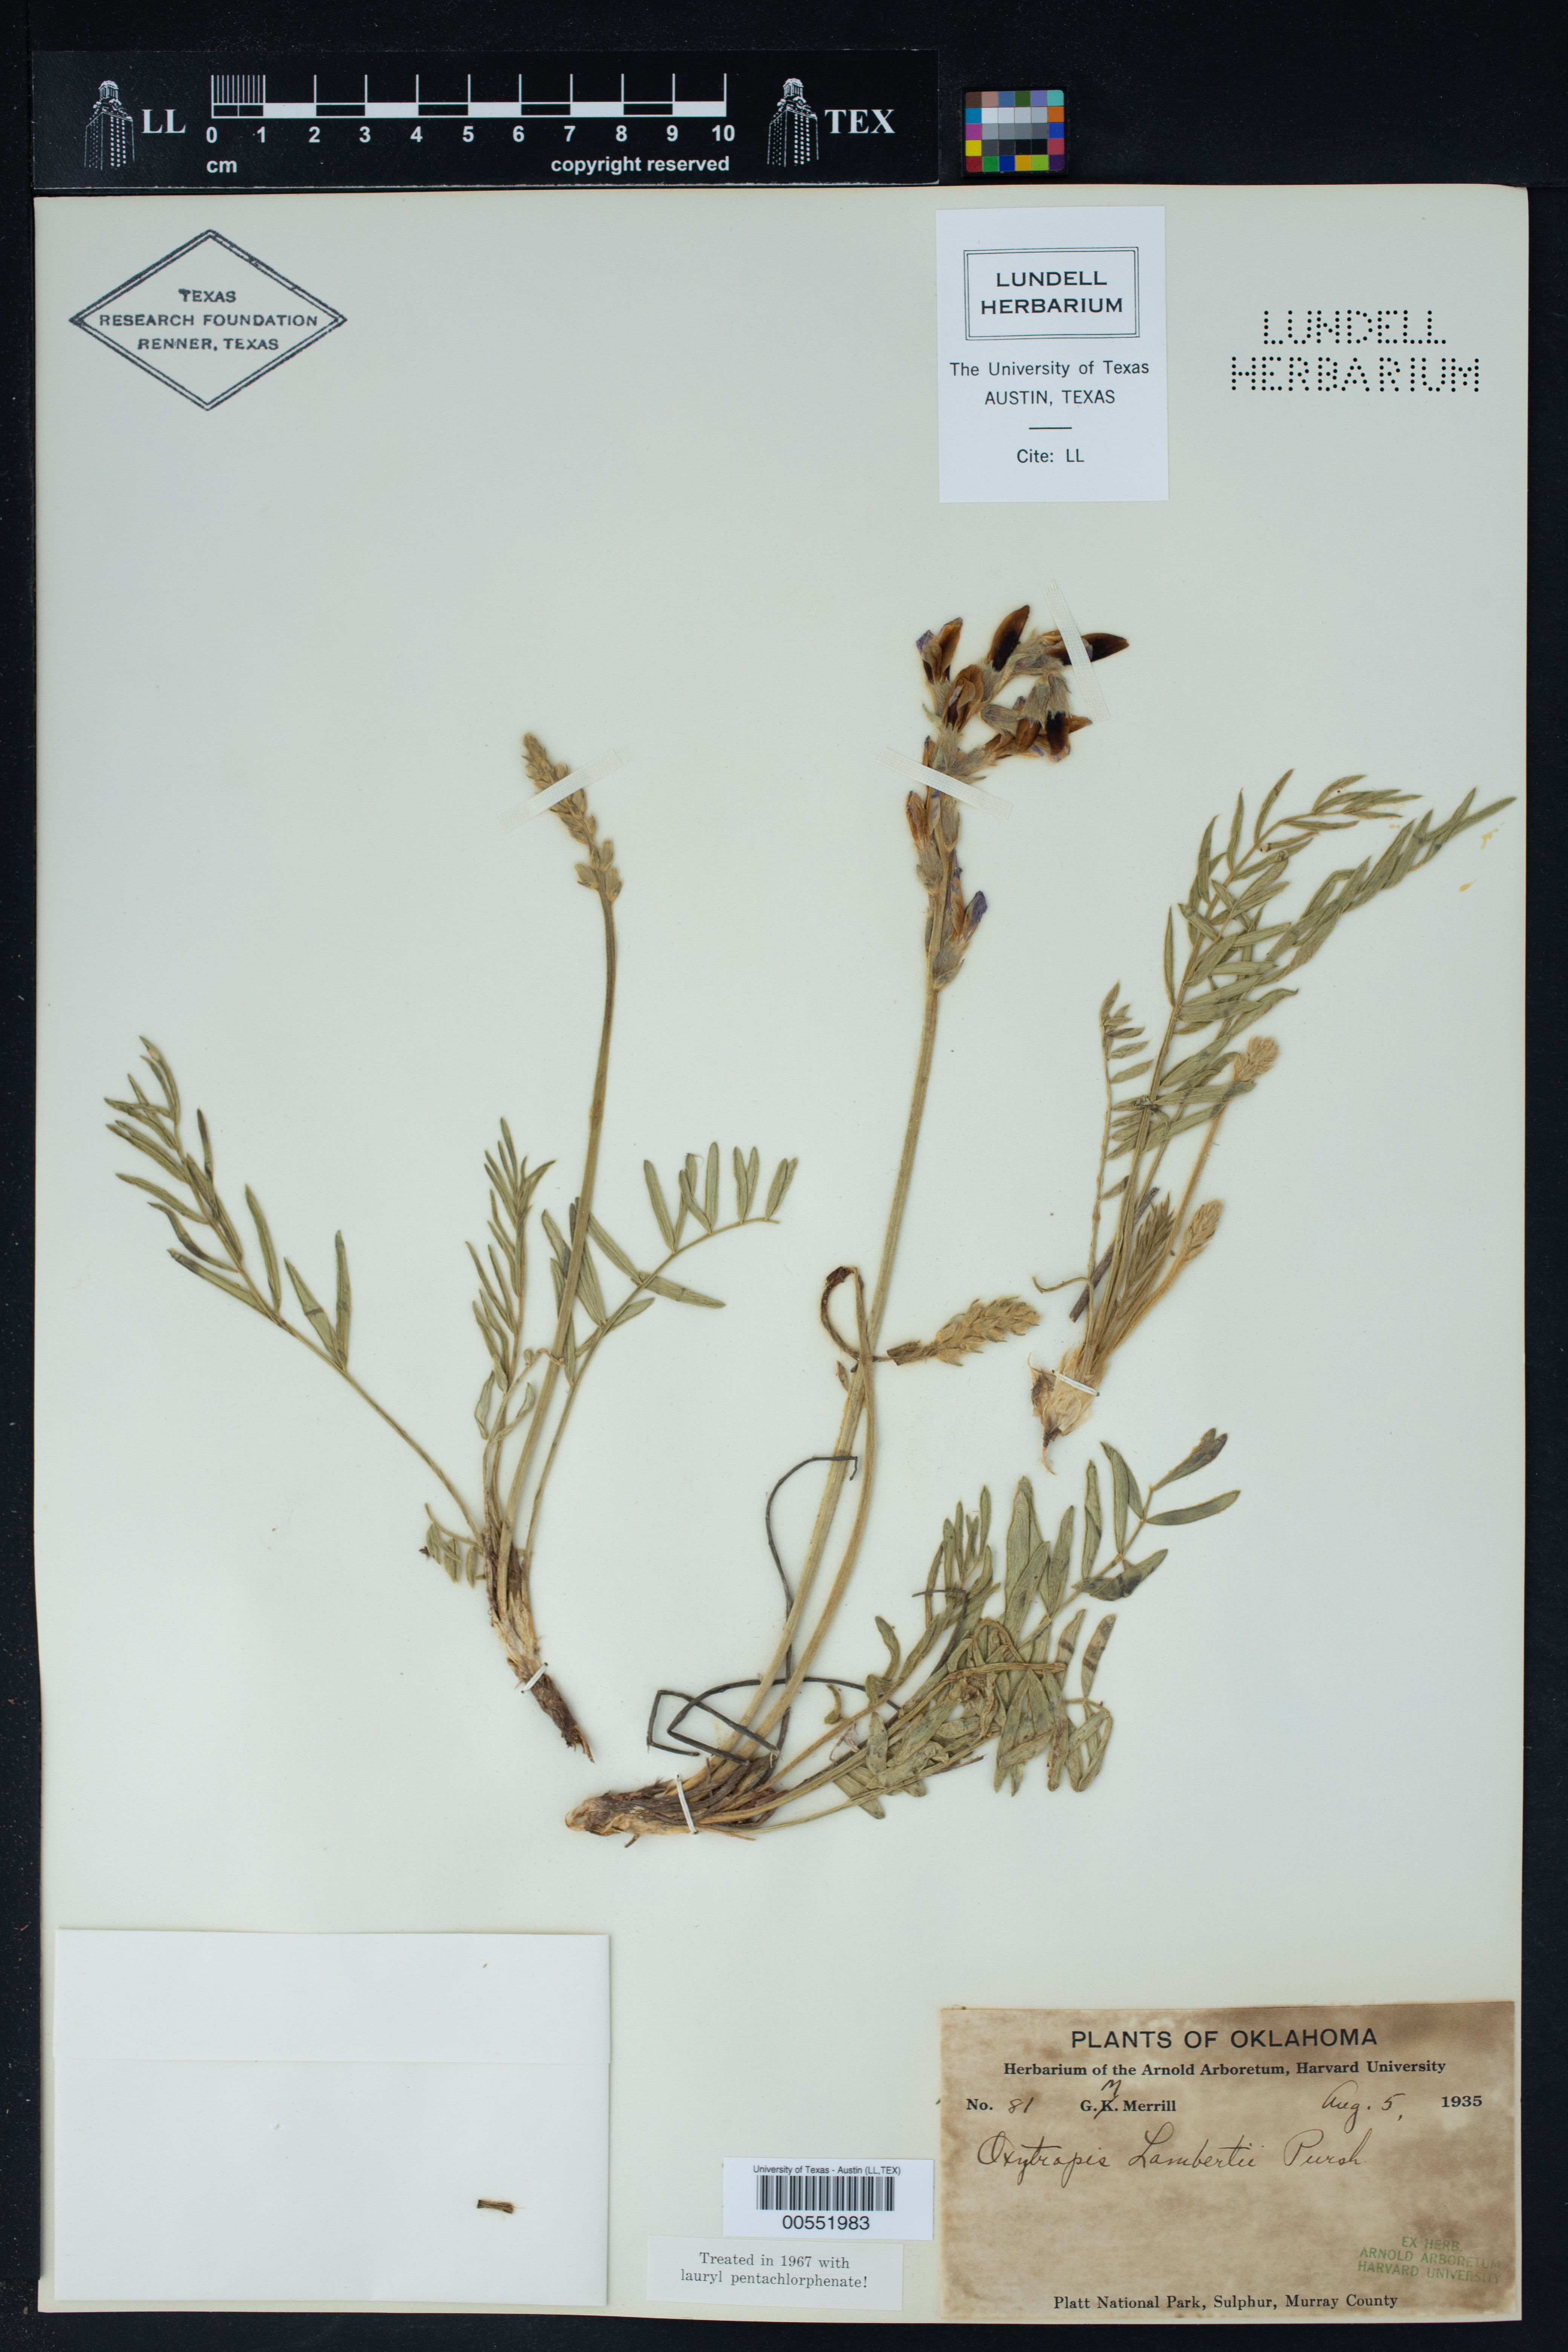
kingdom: Plantae
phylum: Tracheophyta
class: Magnoliopsida
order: Fabales
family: Fabaceae
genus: Oxytropis
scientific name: Oxytropis lambertii
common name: Purple locoweed
